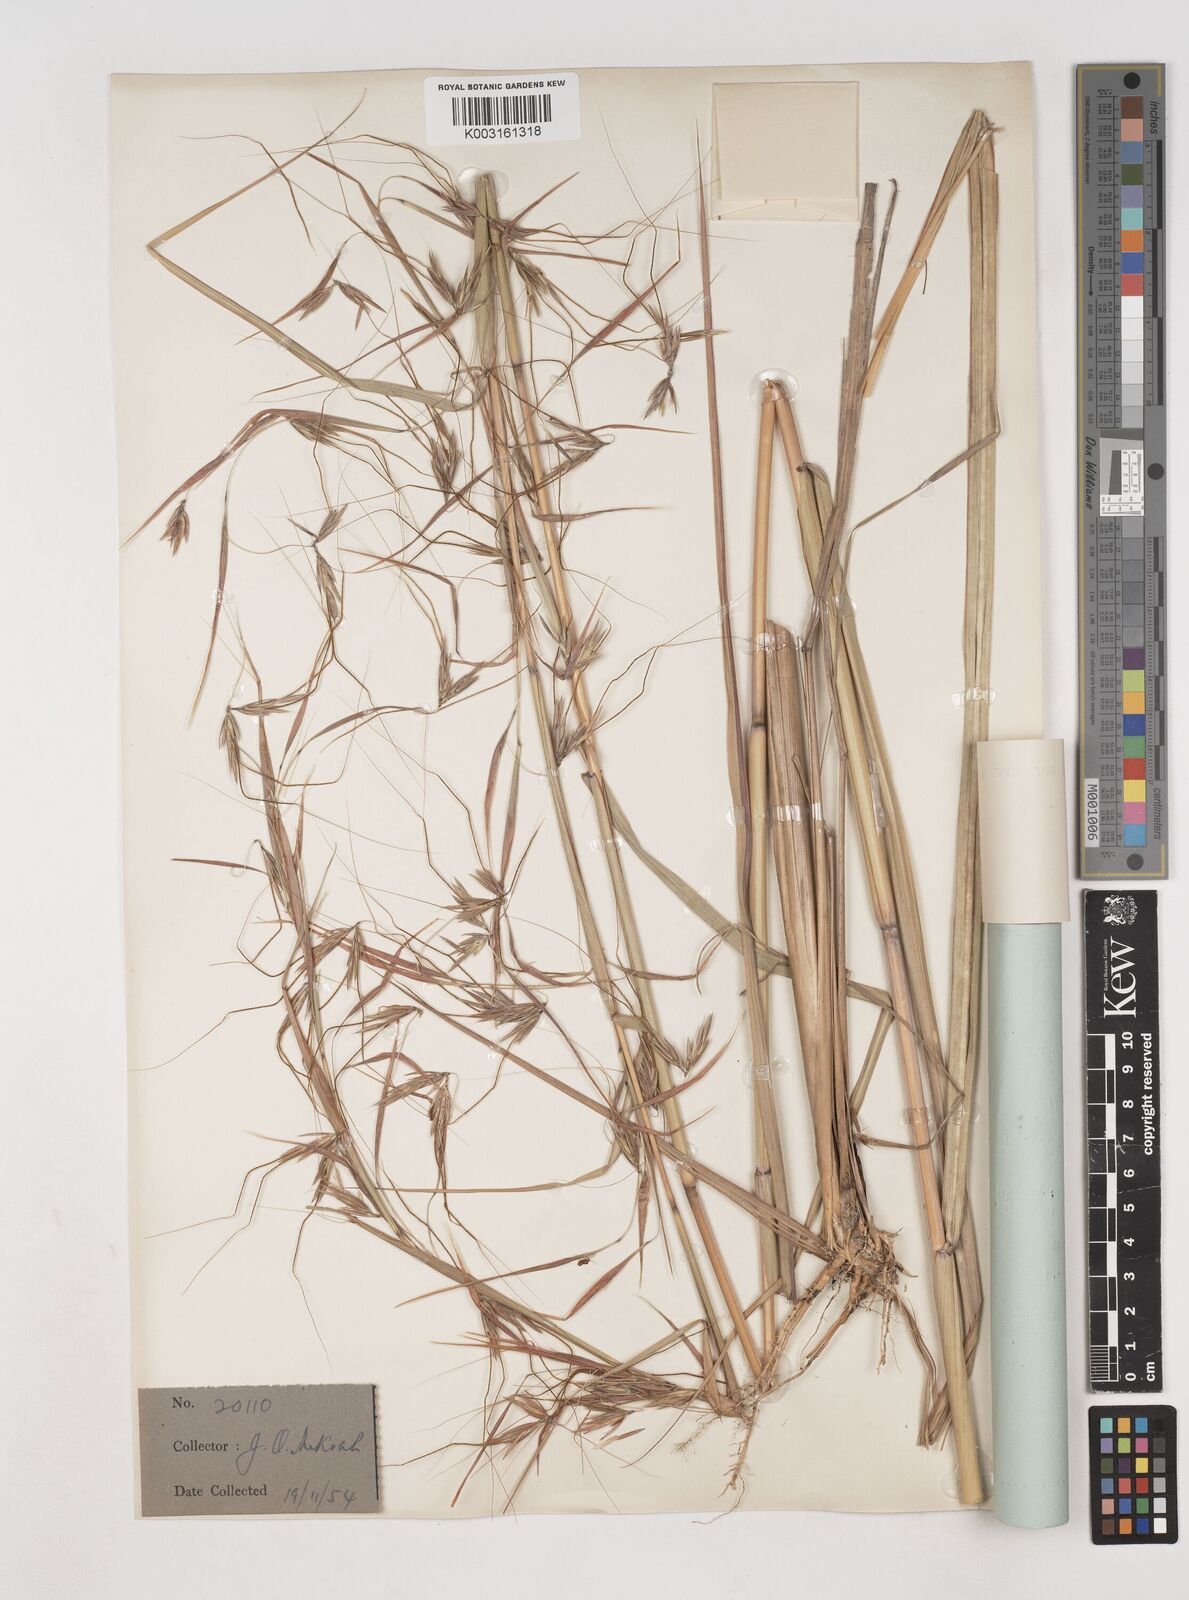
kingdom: Plantae
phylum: Tracheophyta
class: Liliopsida
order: Poales
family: Poaceae
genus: Hyparrhenia
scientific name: Hyparrhenia subplumosa
